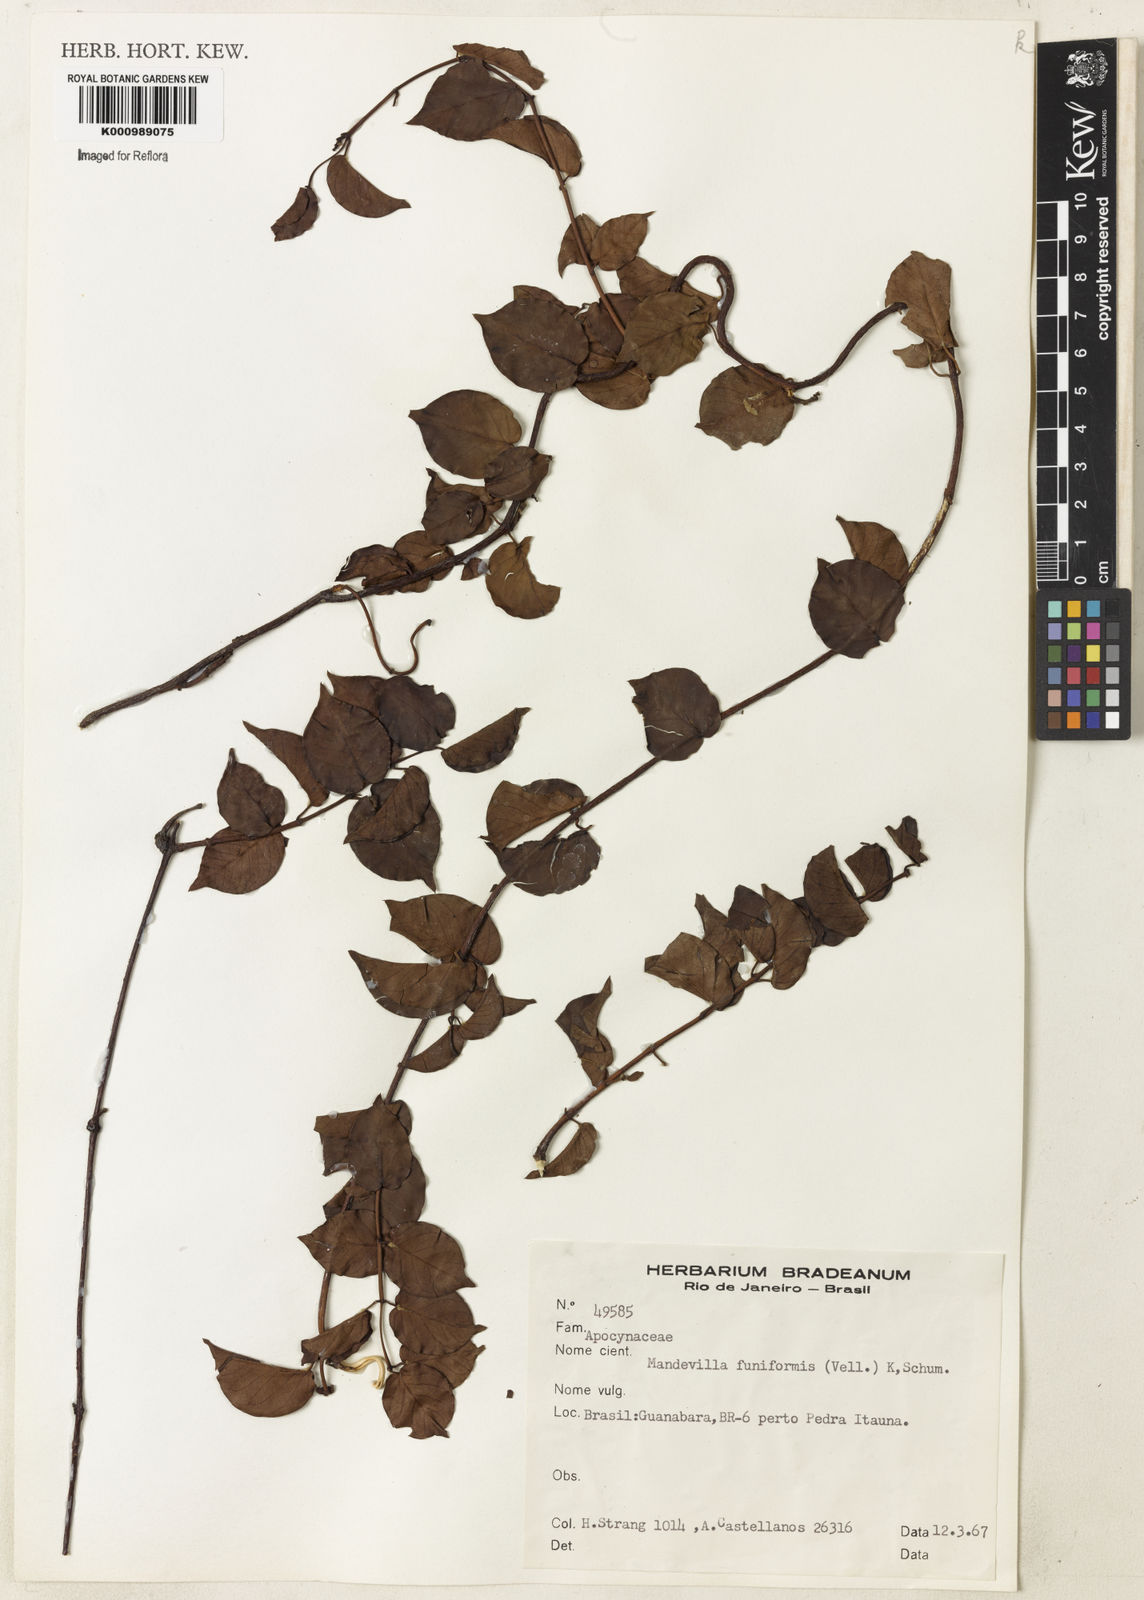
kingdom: Plantae
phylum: Tracheophyta
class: Magnoliopsida
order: Gentianales
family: Apocynaceae
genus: Mandevilla
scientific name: Mandevilla funiformis
